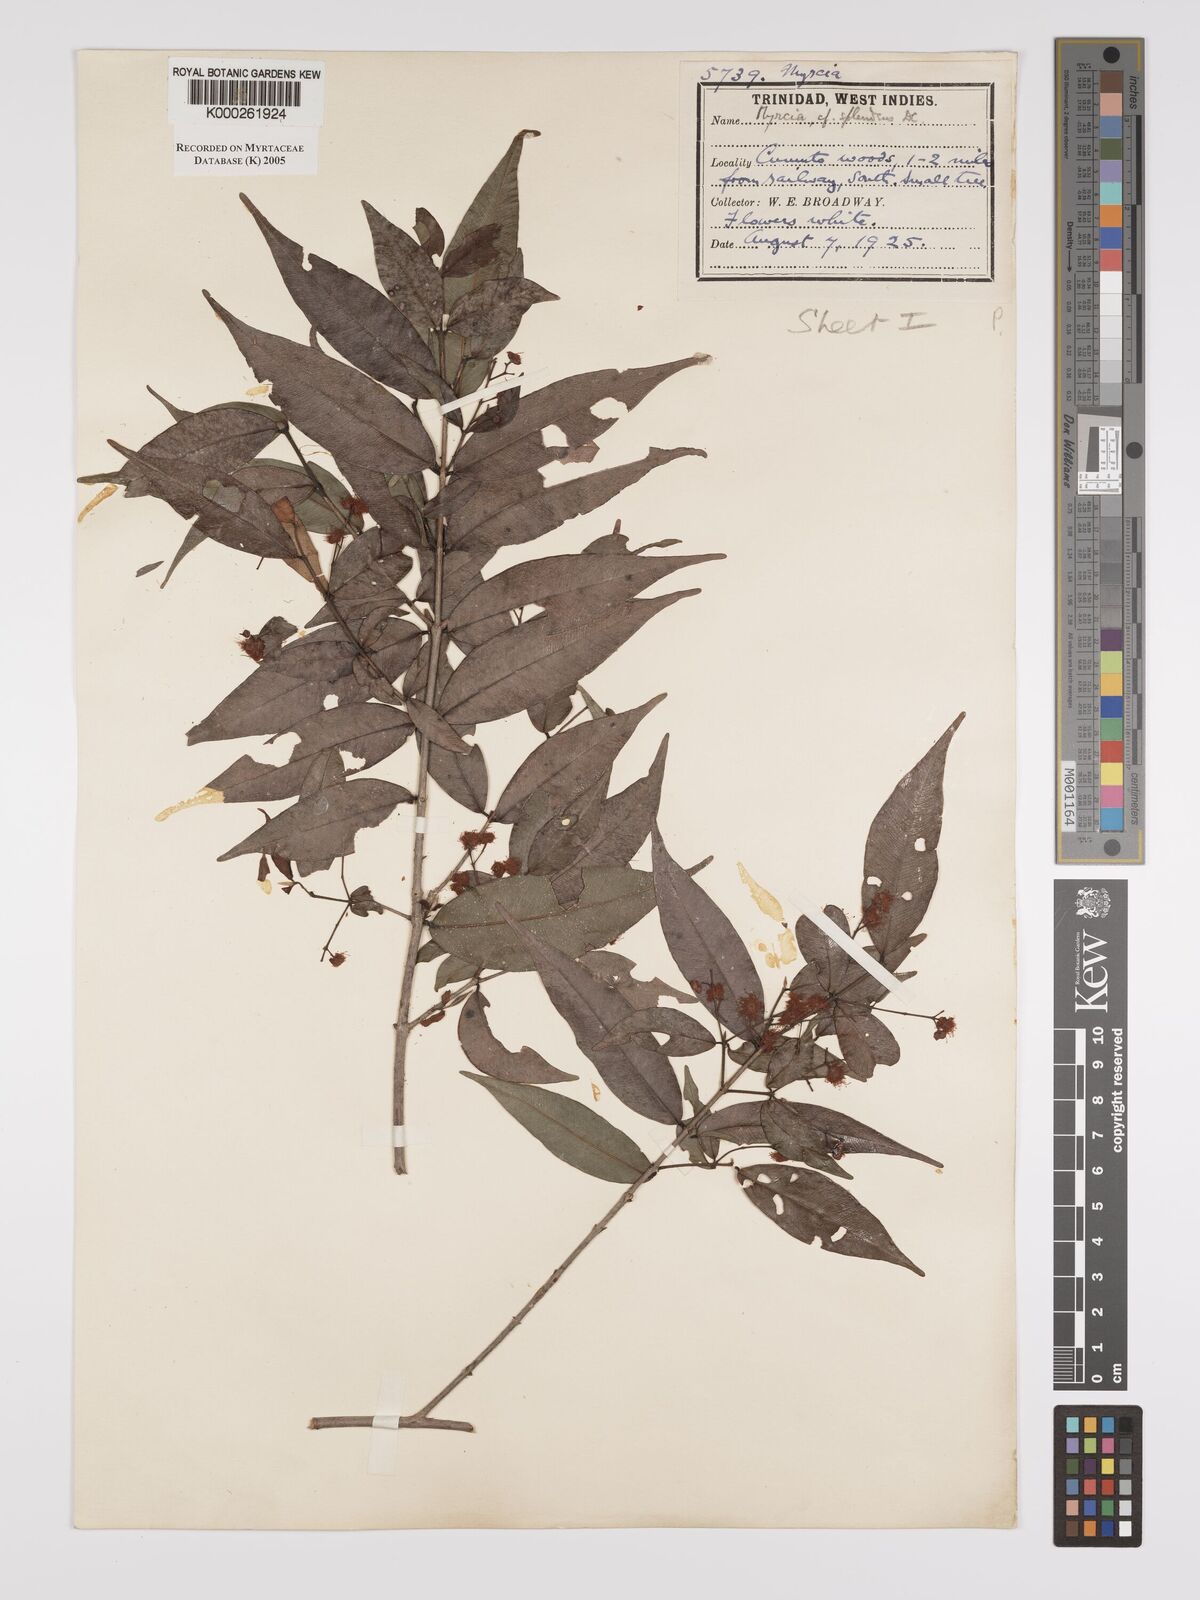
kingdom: Plantae
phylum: Tracheophyta
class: Magnoliopsida
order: Myrtales
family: Myrtaceae
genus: Myrcia
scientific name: Myrcia splendens
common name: Surinam cherry
